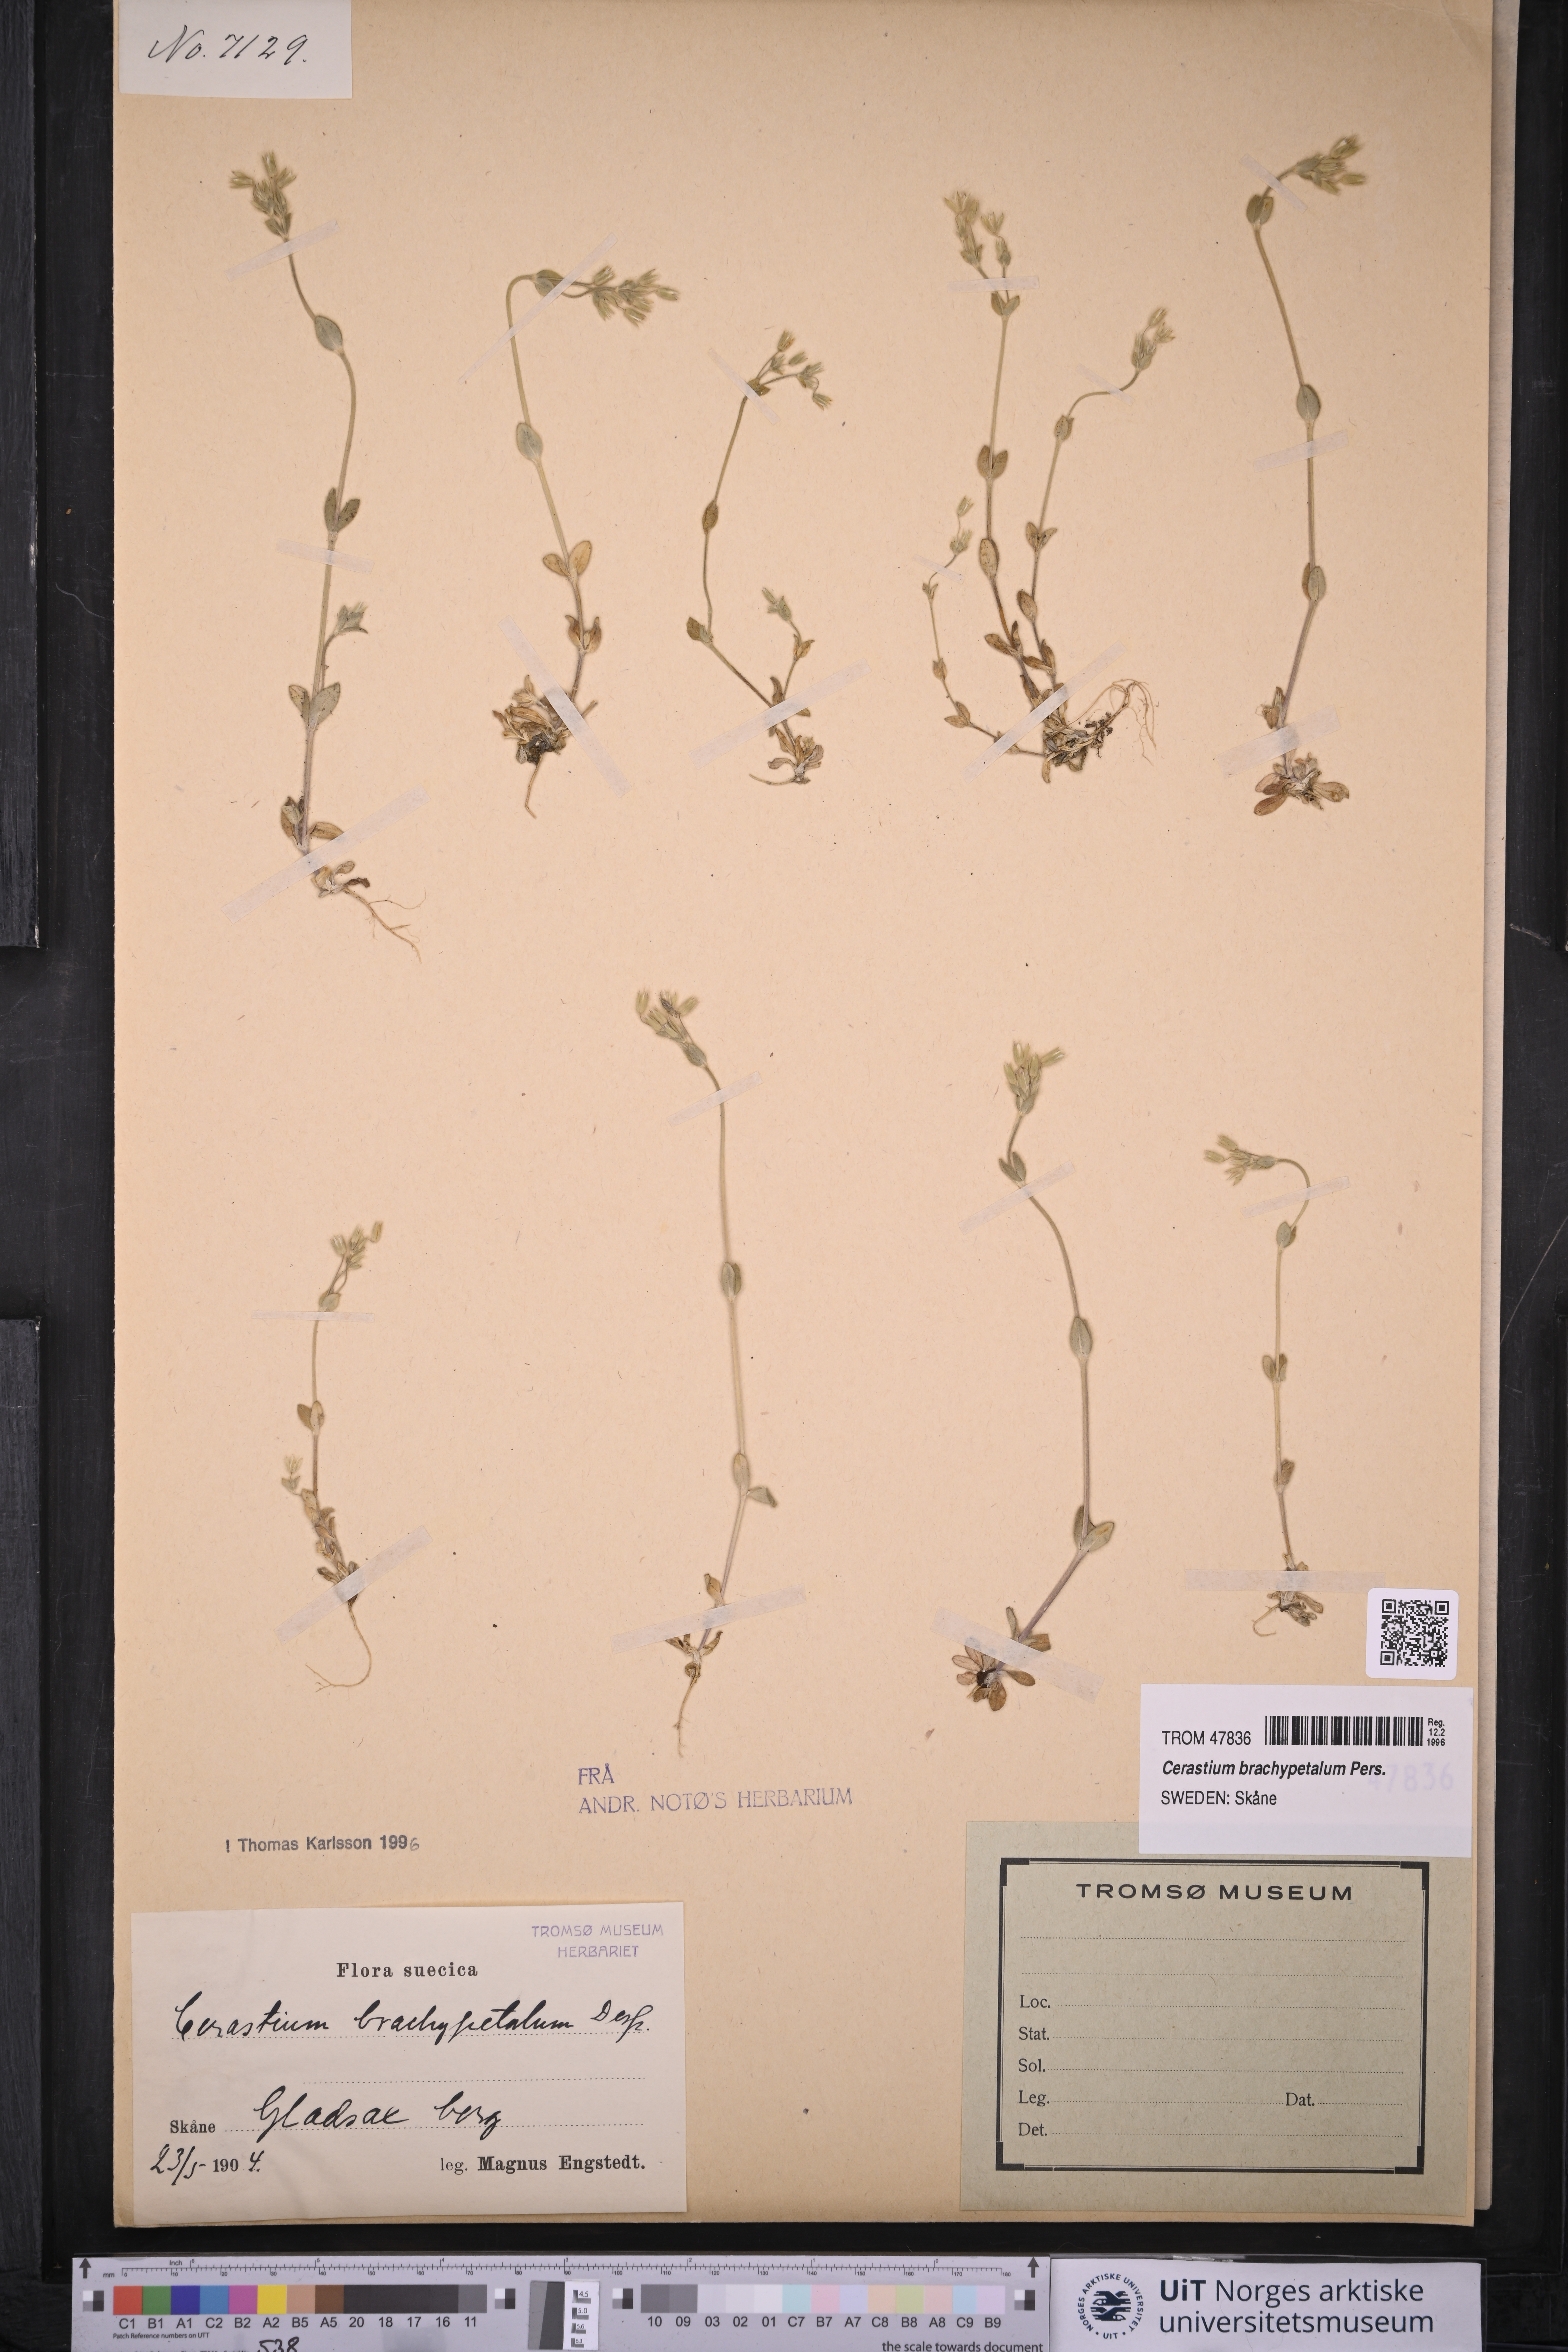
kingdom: Plantae
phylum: Tracheophyta
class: Magnoliopsida
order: Caryophyllales
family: Caryophyllaceae
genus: Cerastium
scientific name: Cerastium brachypetalum
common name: Grey mouse-ear
